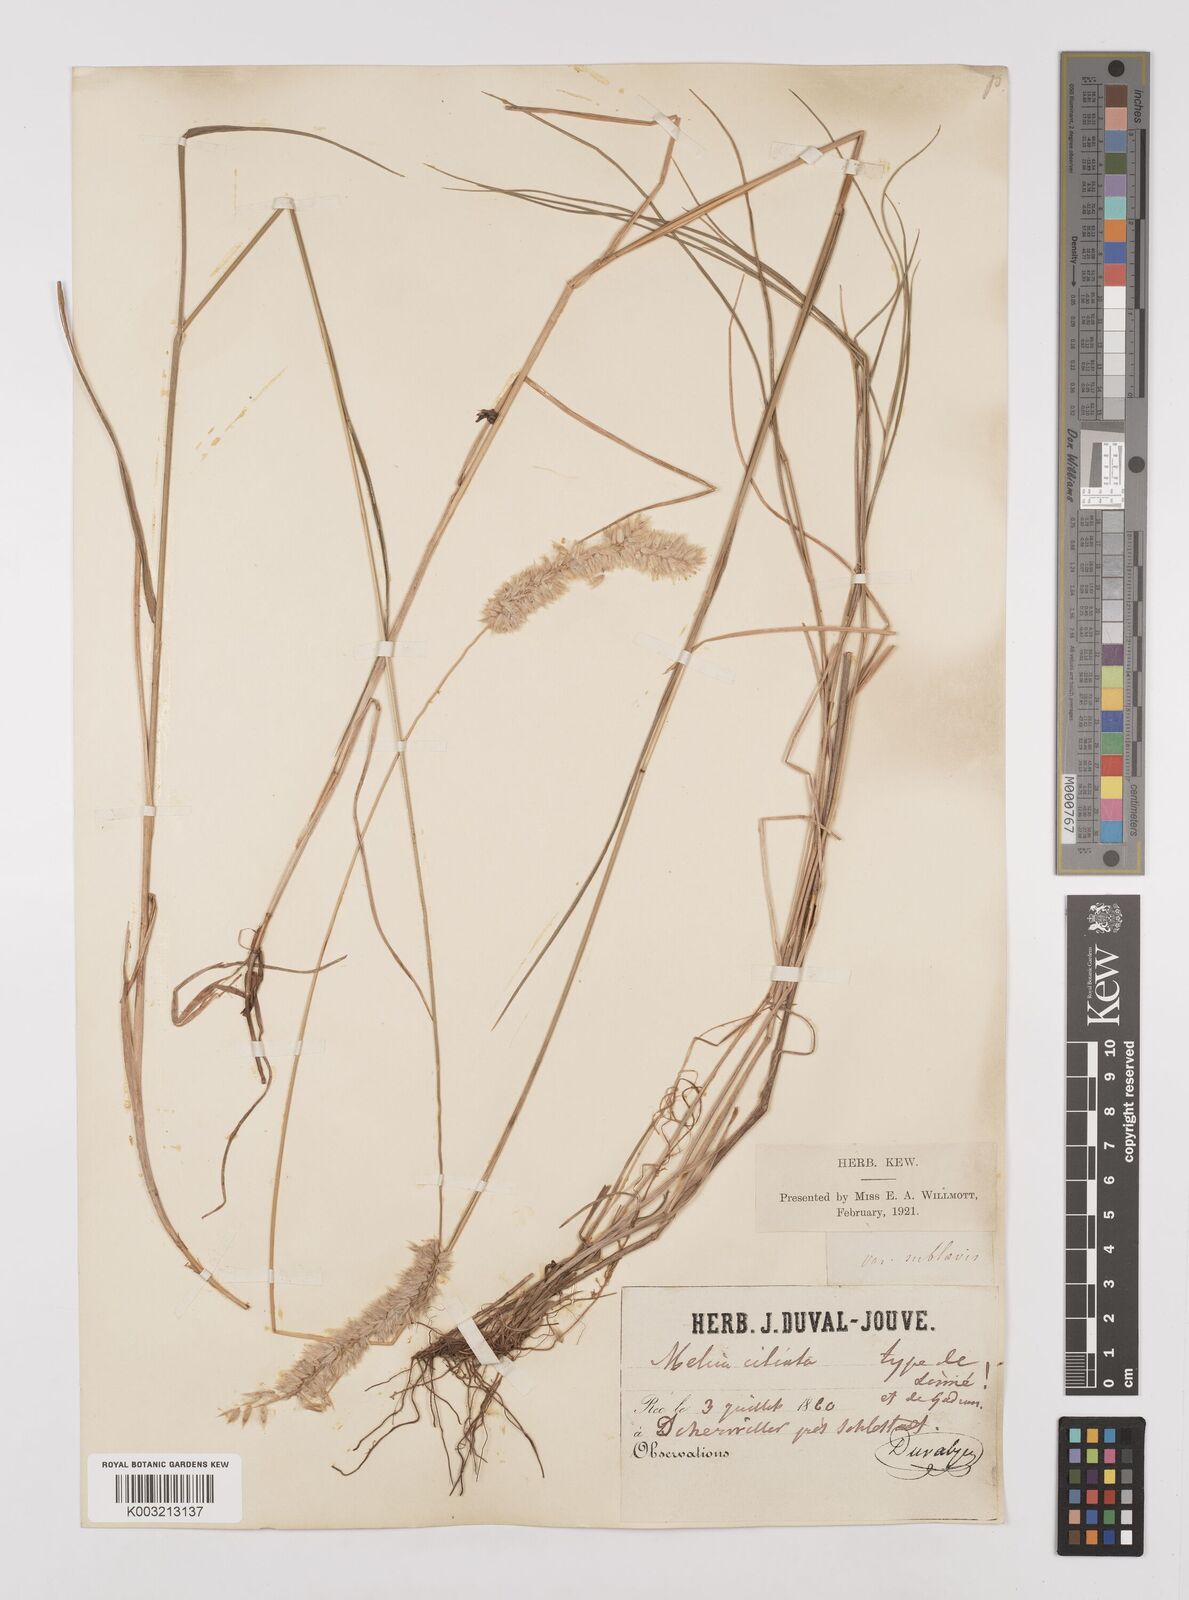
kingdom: Plantae
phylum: Tracheophyta
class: Liliopsida
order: Poales
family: Poaceae
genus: Melica
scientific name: Melica ciliata
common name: Hairy melicgrass
